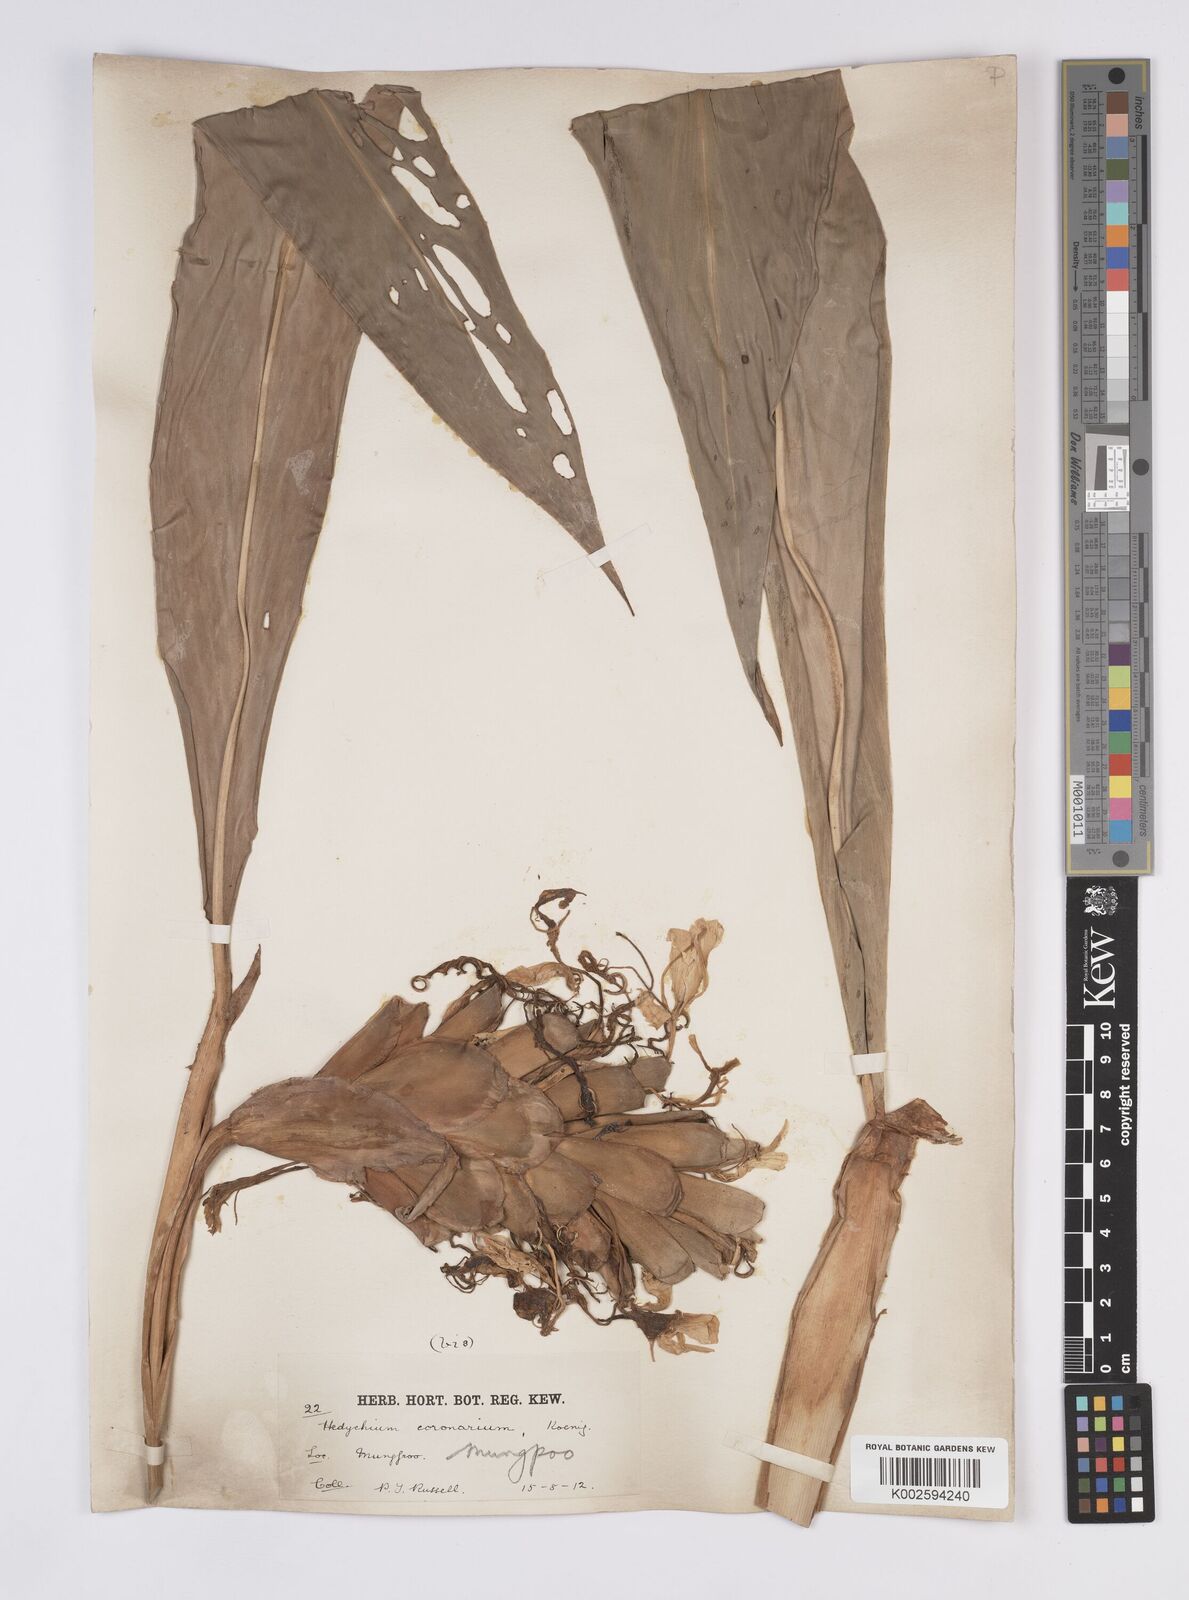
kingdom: Plantae
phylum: Tracheophyta
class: Liliopsida
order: Zingiberales
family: Zingiberaceae
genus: Hedychium
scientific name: Hedychium coronarium
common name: White garland-lily
